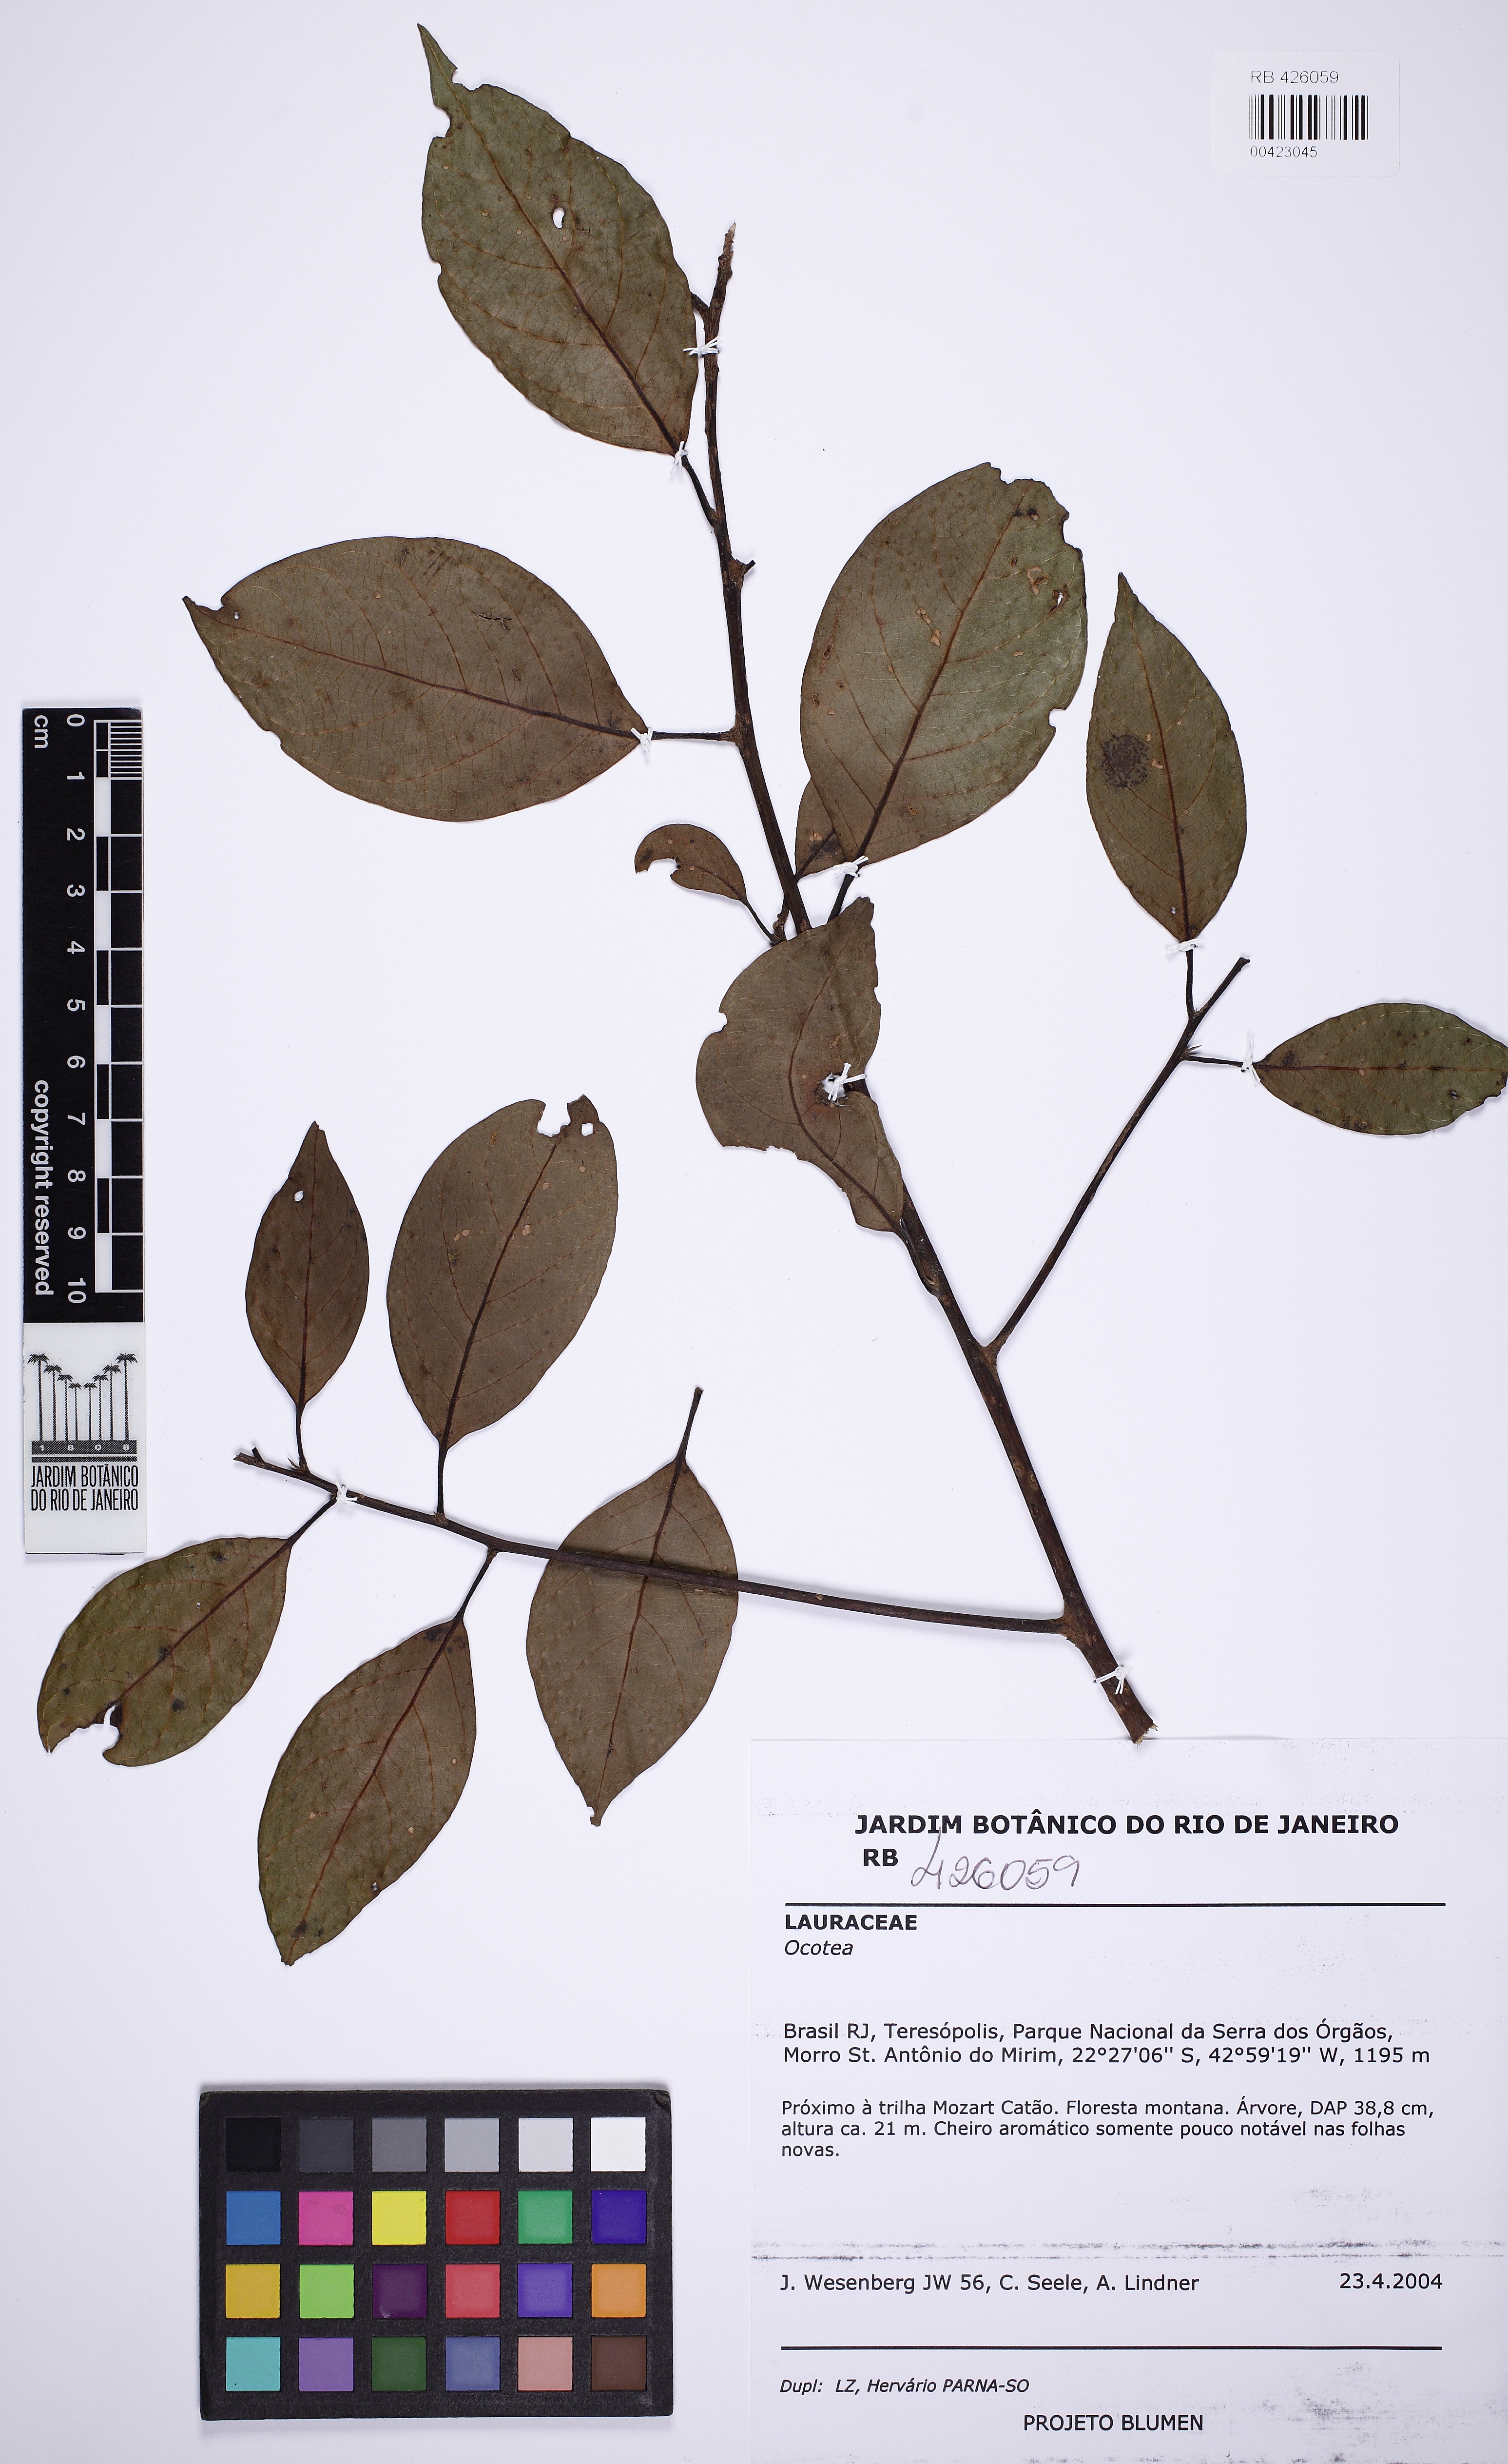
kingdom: Plantae
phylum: Tracheophyta
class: Magnoliopsida
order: Laurales
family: Lauraceae
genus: Ocotea
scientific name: Ocotea
